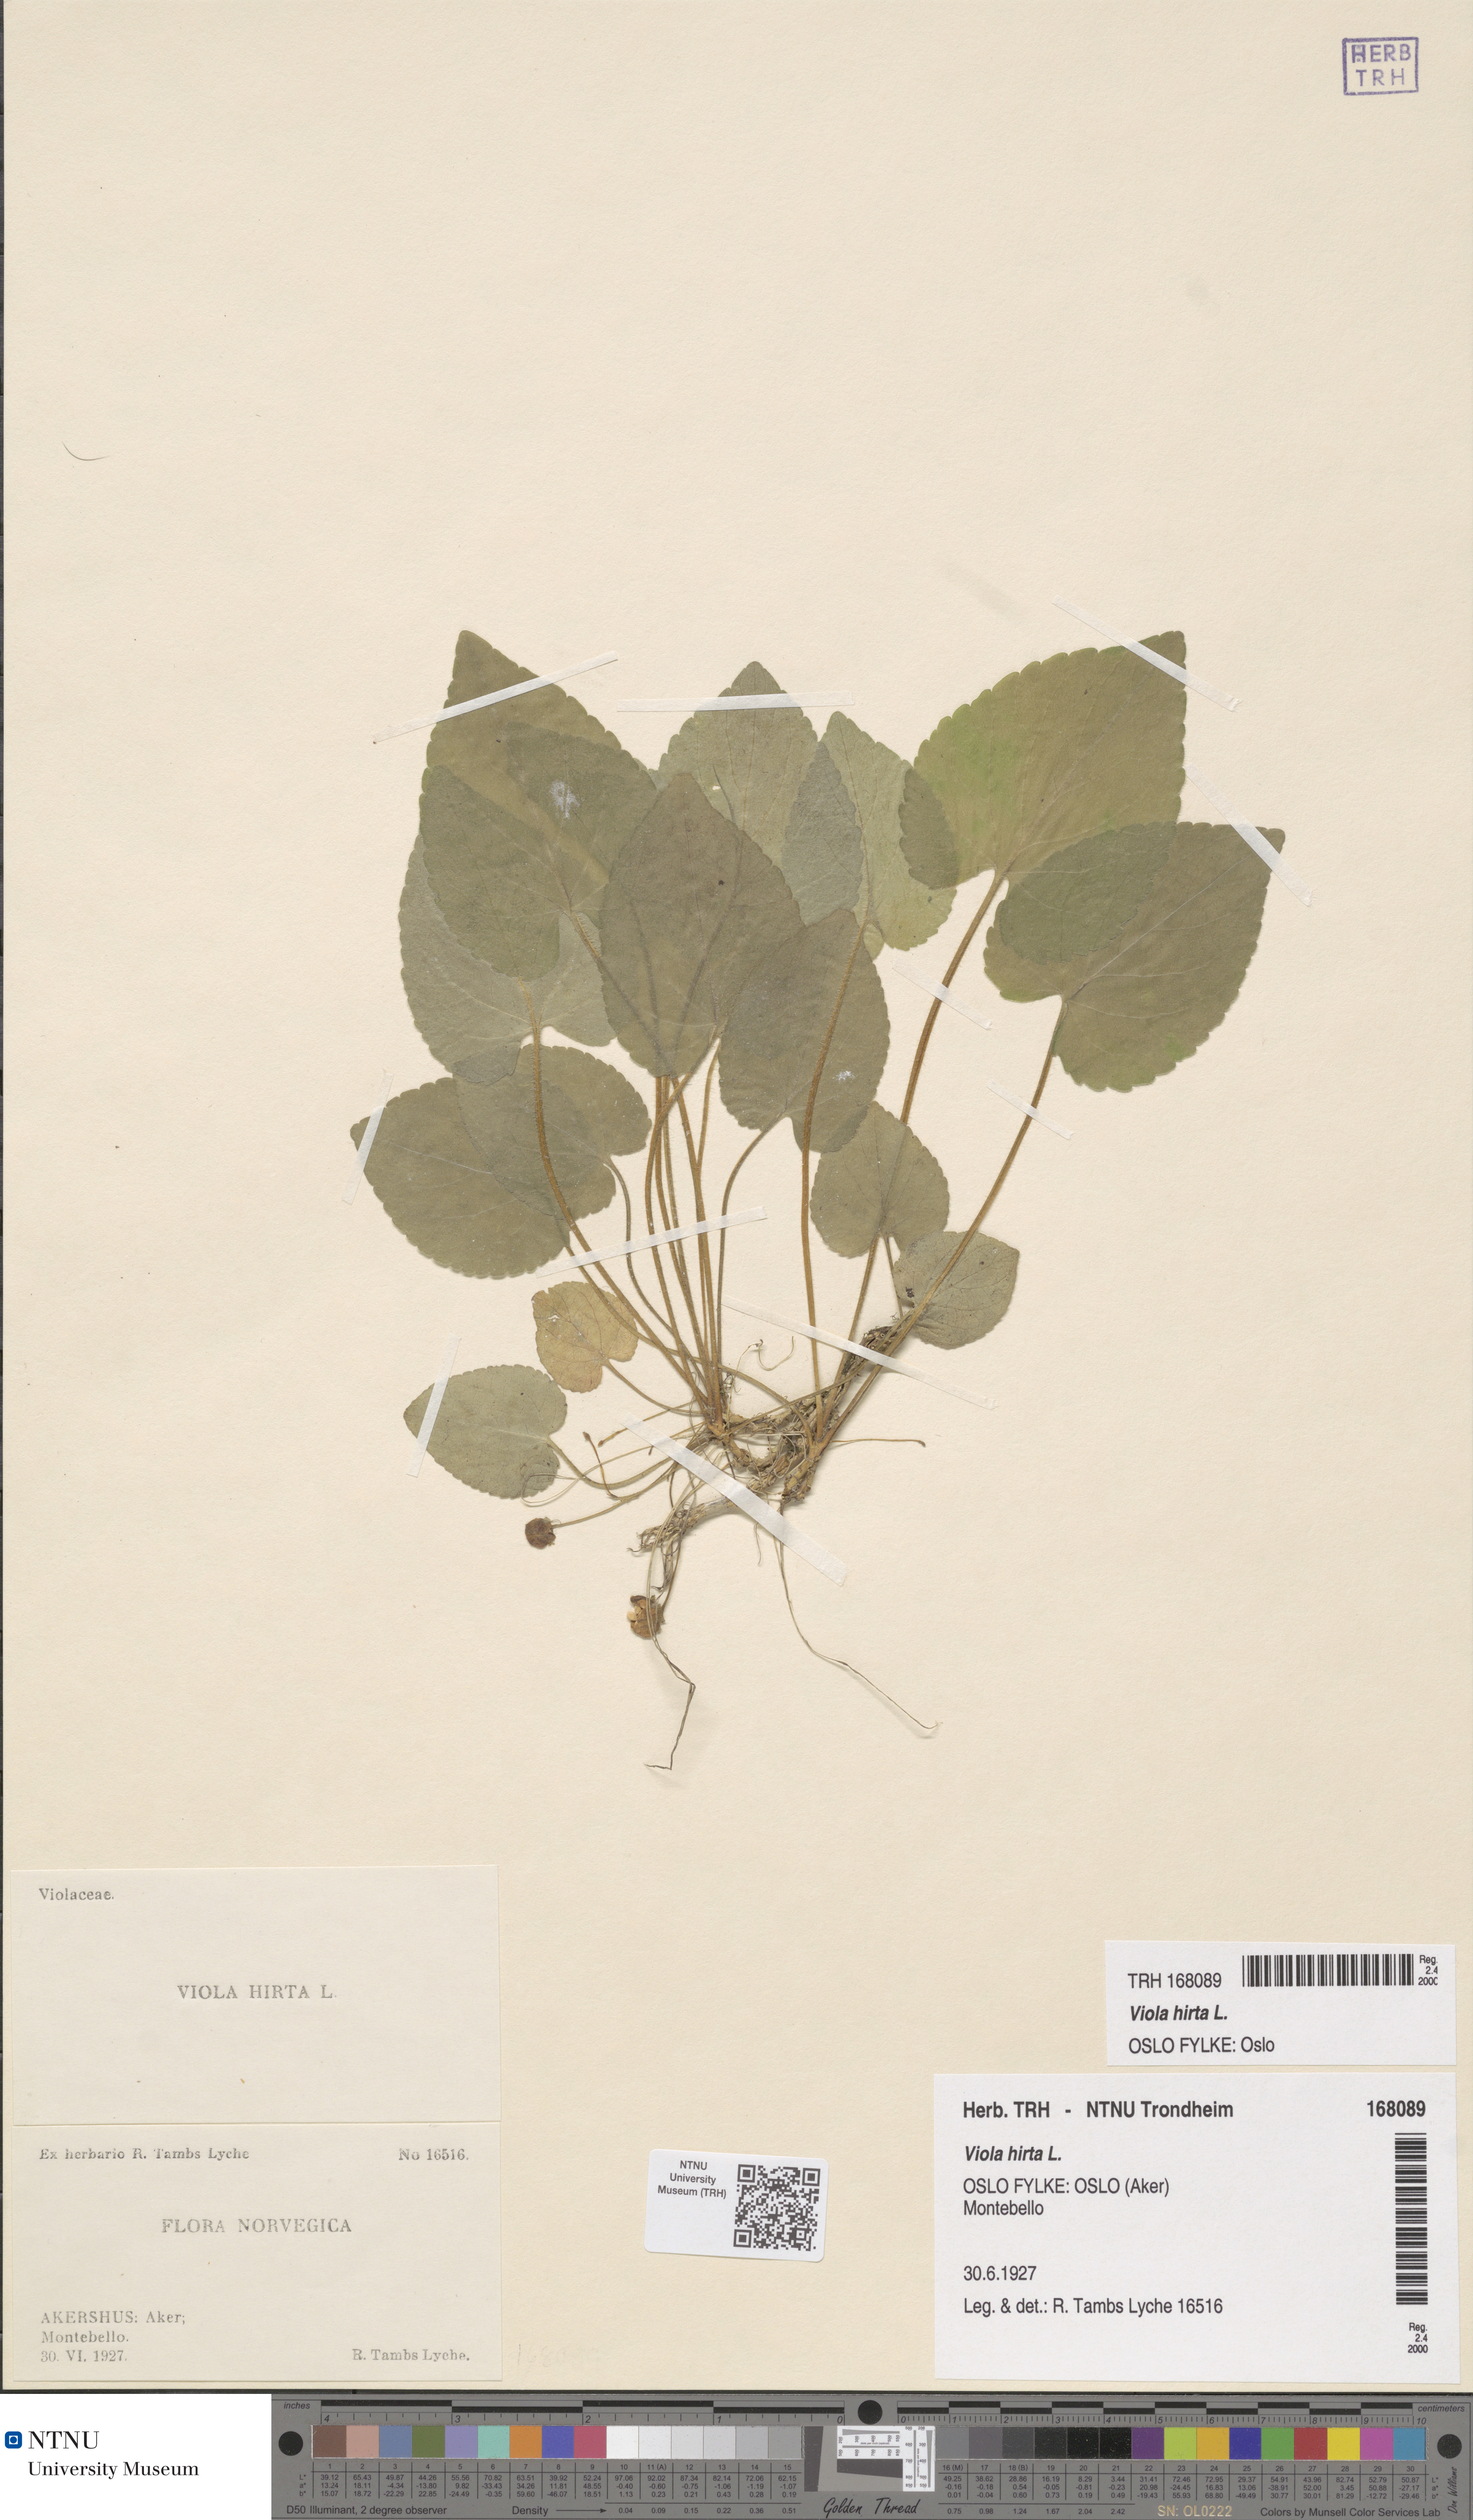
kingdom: Plantae
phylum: Tracheophyta
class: Magnoliopsida
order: Malpighiales
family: Violaceae
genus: Viola
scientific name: Viola hirta
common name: Hairy violet
